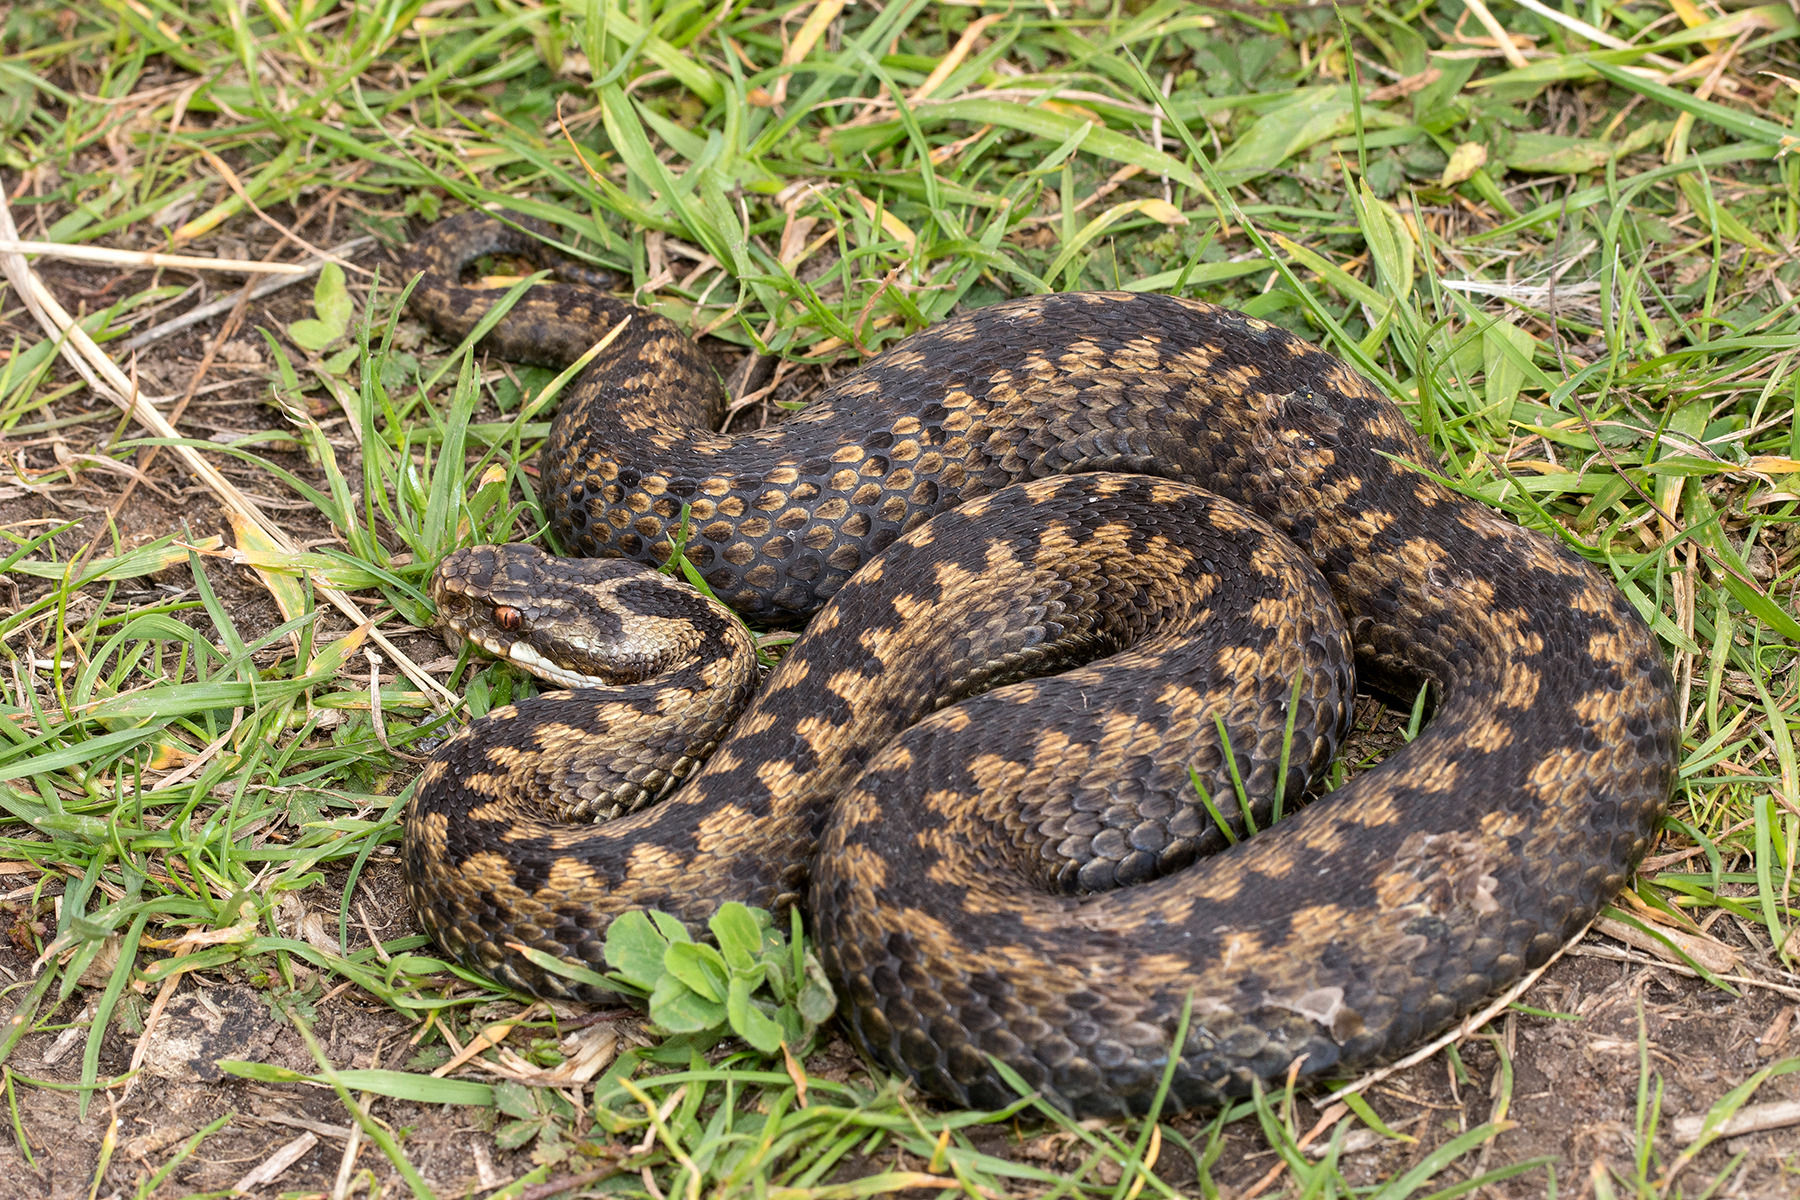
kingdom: Animalia
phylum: Chordata
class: Squamata
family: Viperidae
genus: Vipera
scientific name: Vipera berus
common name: Hugorm
